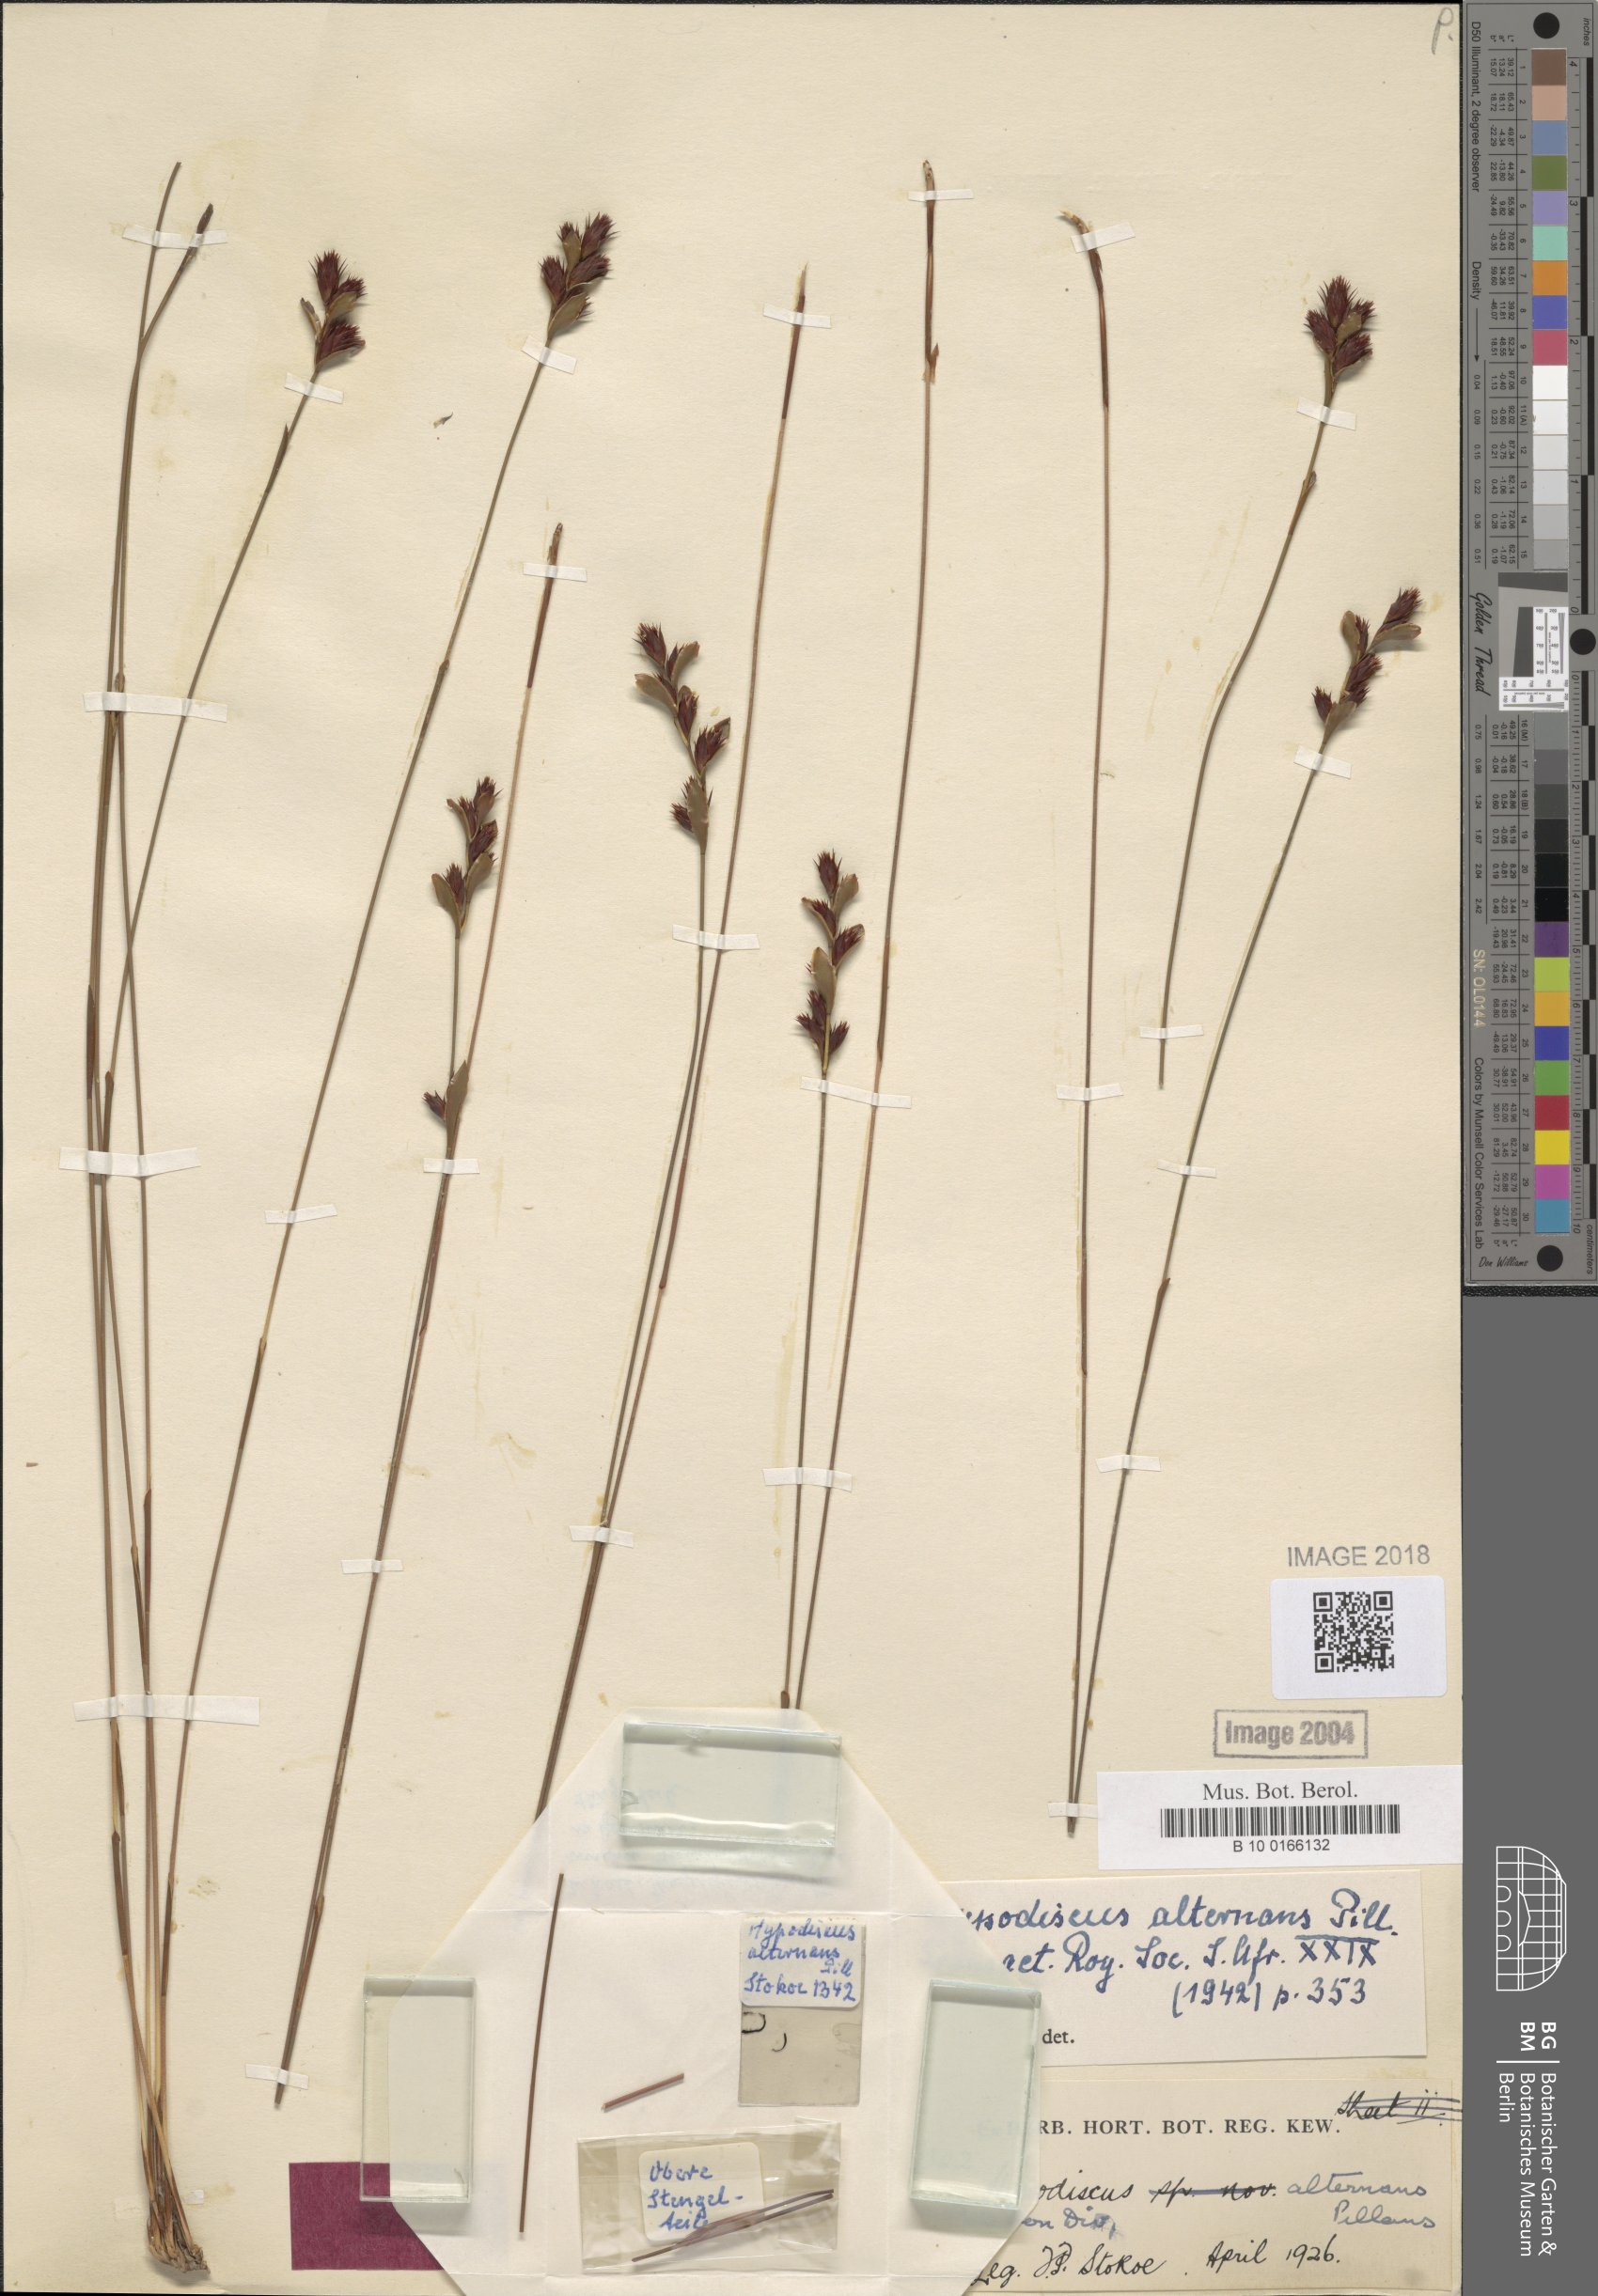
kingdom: Plantae
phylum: Tracheophyta
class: Liliopsida
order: Poales
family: Restionaceae
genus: Hypodiscus
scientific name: Hypodiscus alternans
